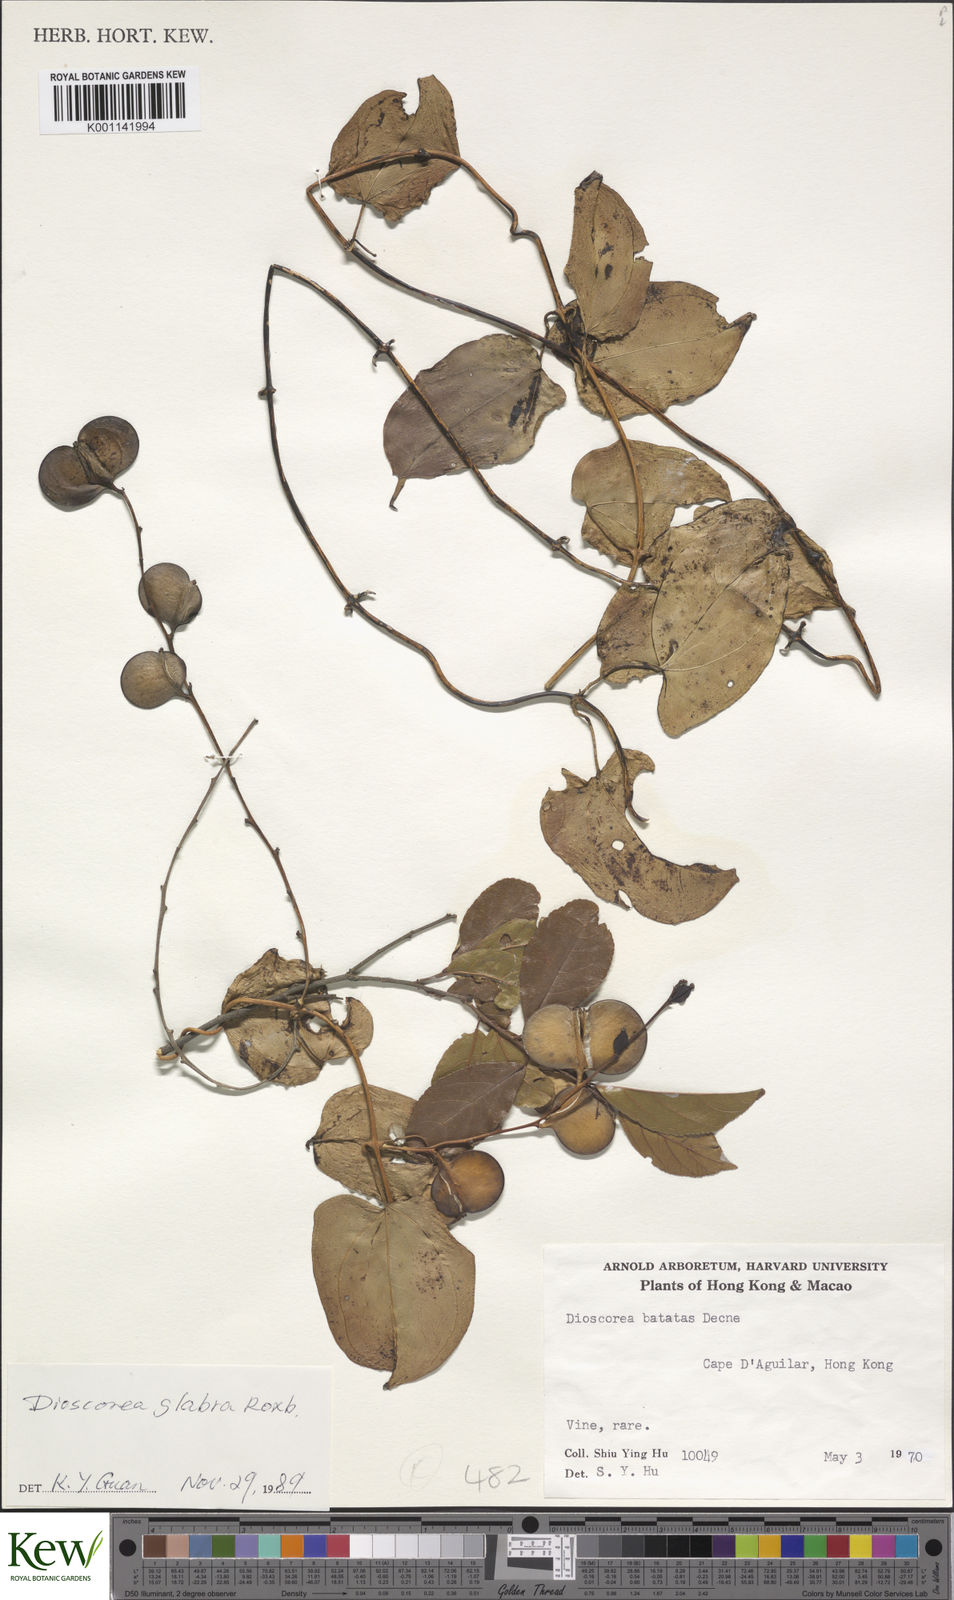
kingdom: Plantae
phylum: Tracheophyta
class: Liliopsida
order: Dioscoreales
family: Dioscoreaceae
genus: Dioscorea
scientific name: Dioscorea glabra
